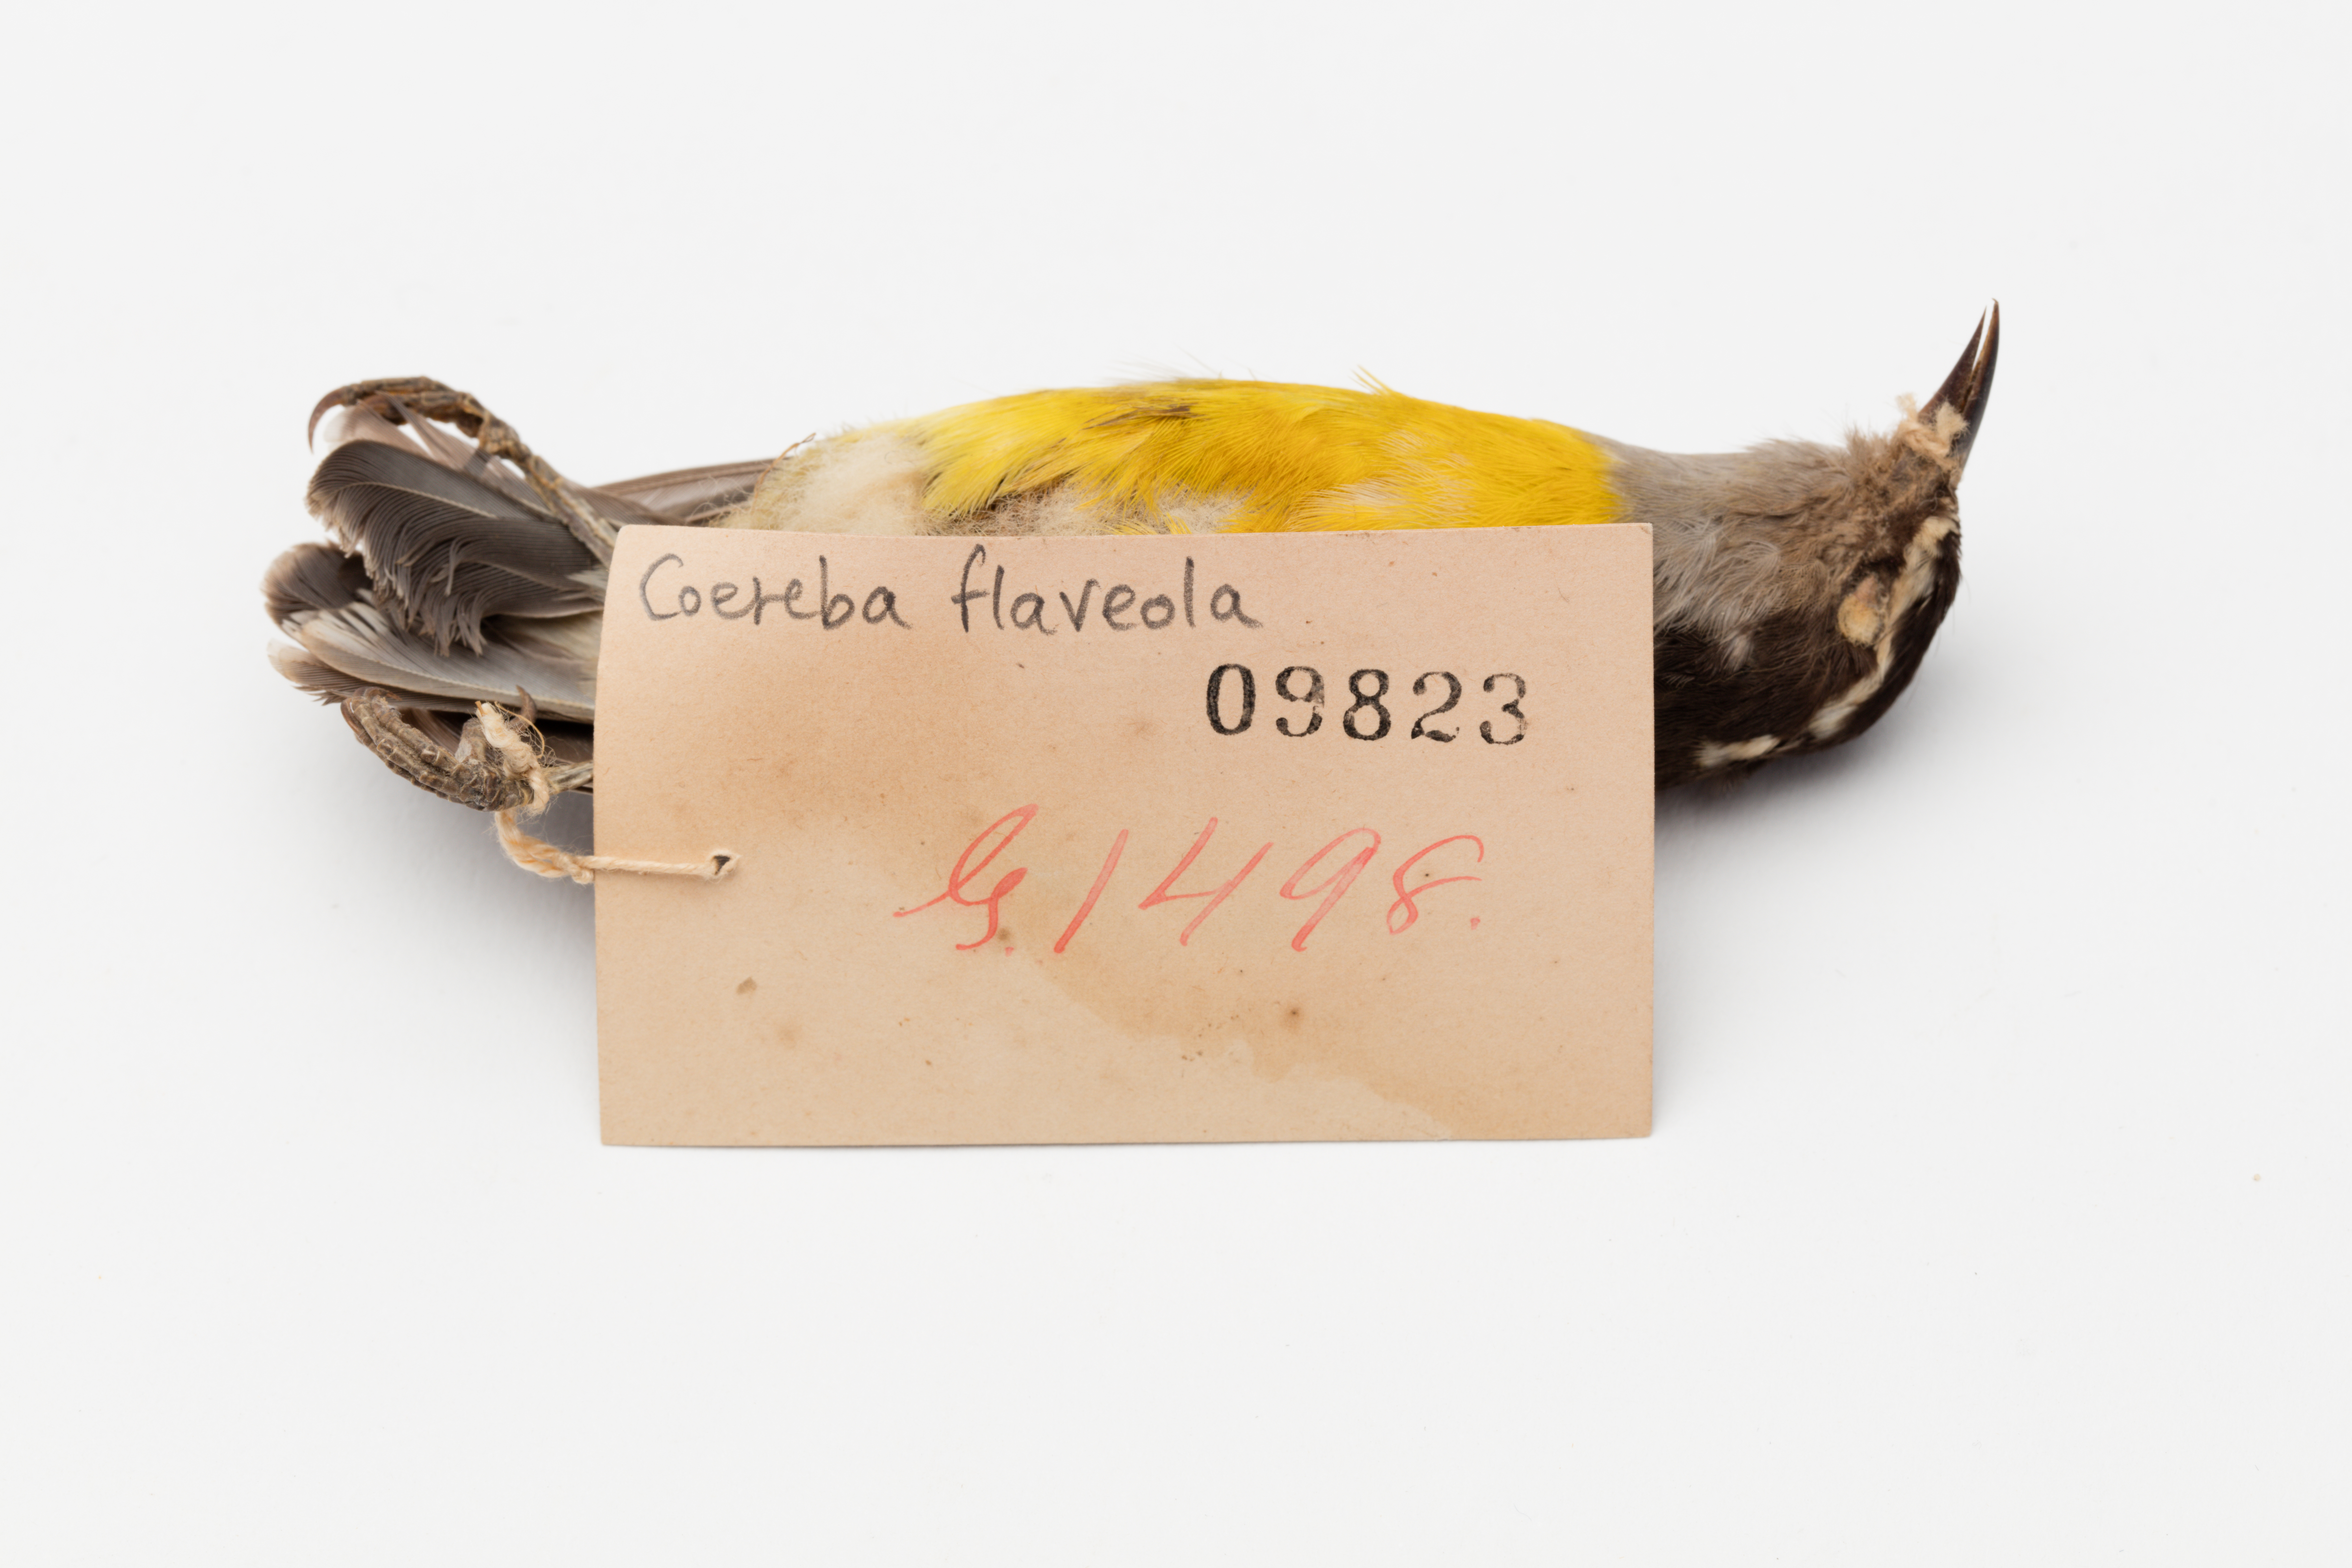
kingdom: Animalia
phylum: Chordata
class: Aves
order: Passeriformes
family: Thraupidae
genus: Coereba
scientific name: Coereba flaveola
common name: Bananaquit
